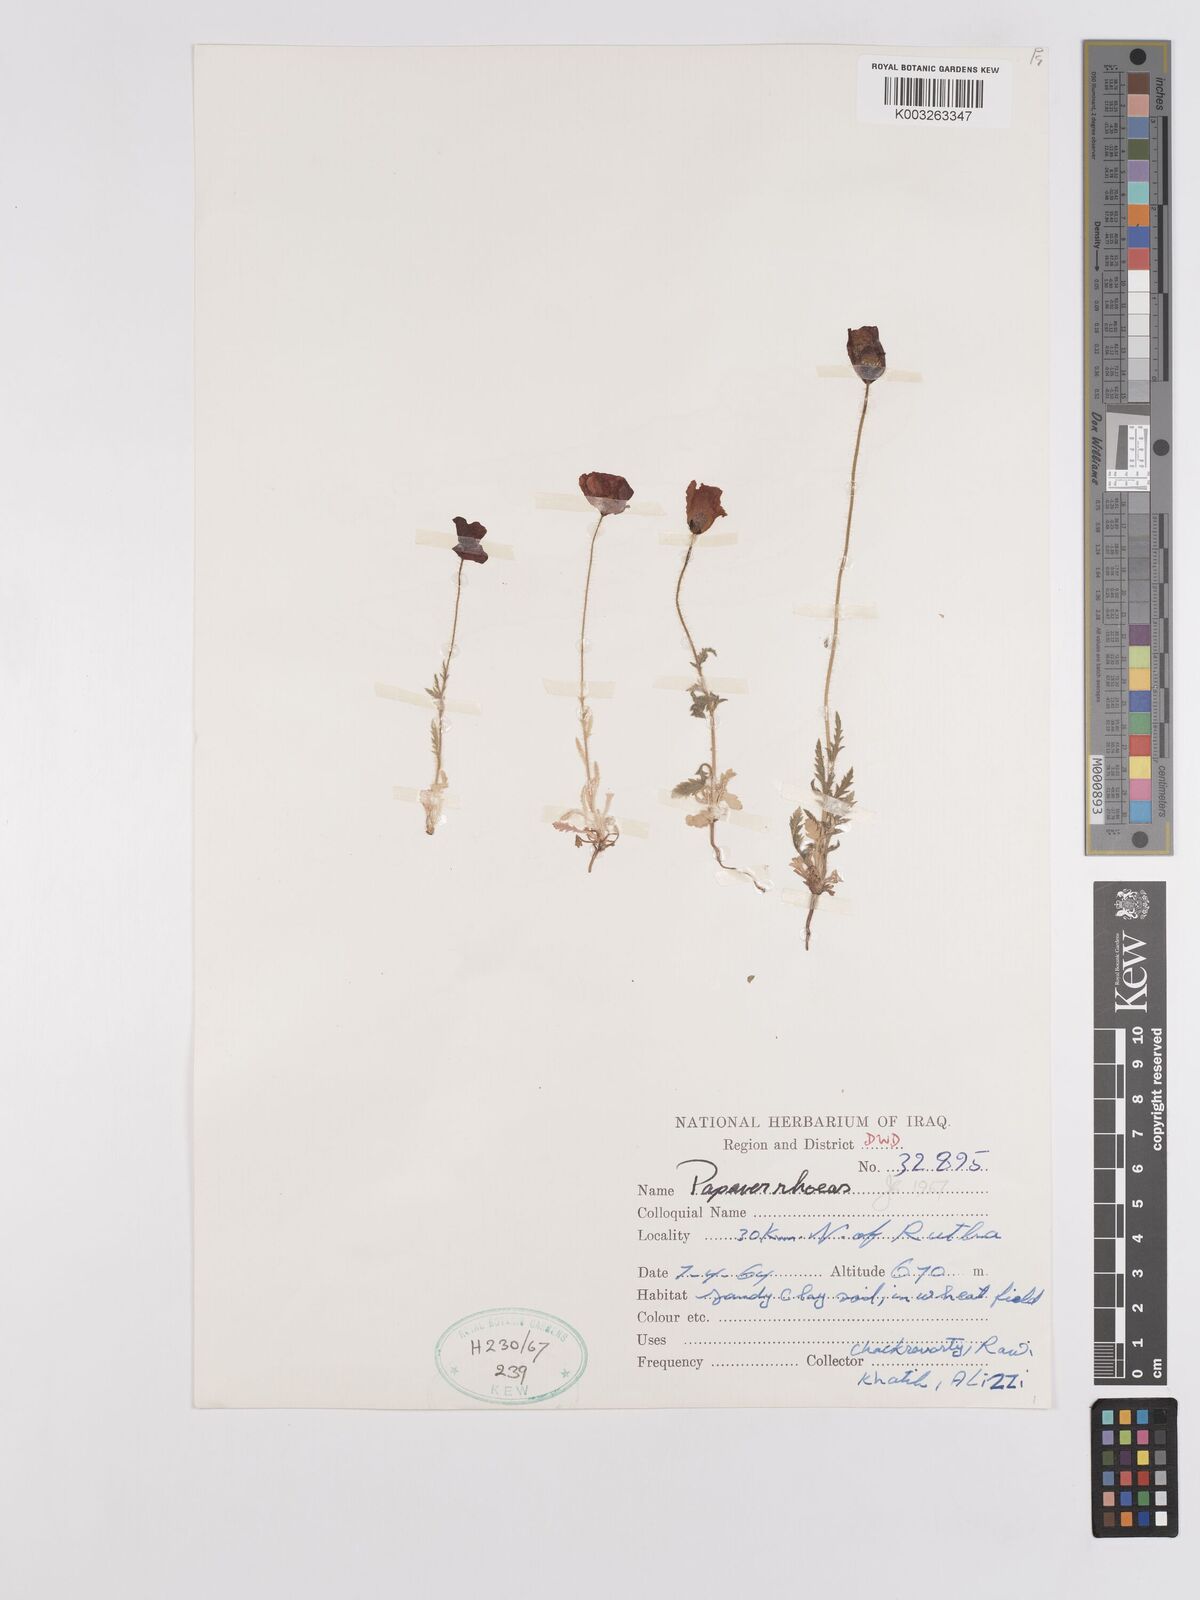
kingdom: Plantae
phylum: Tracheophyta
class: Magnoliopsida
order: Ranunculales
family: Papaveraceae
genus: Papaver
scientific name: Papaver rhoeas
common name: Corn poppy
